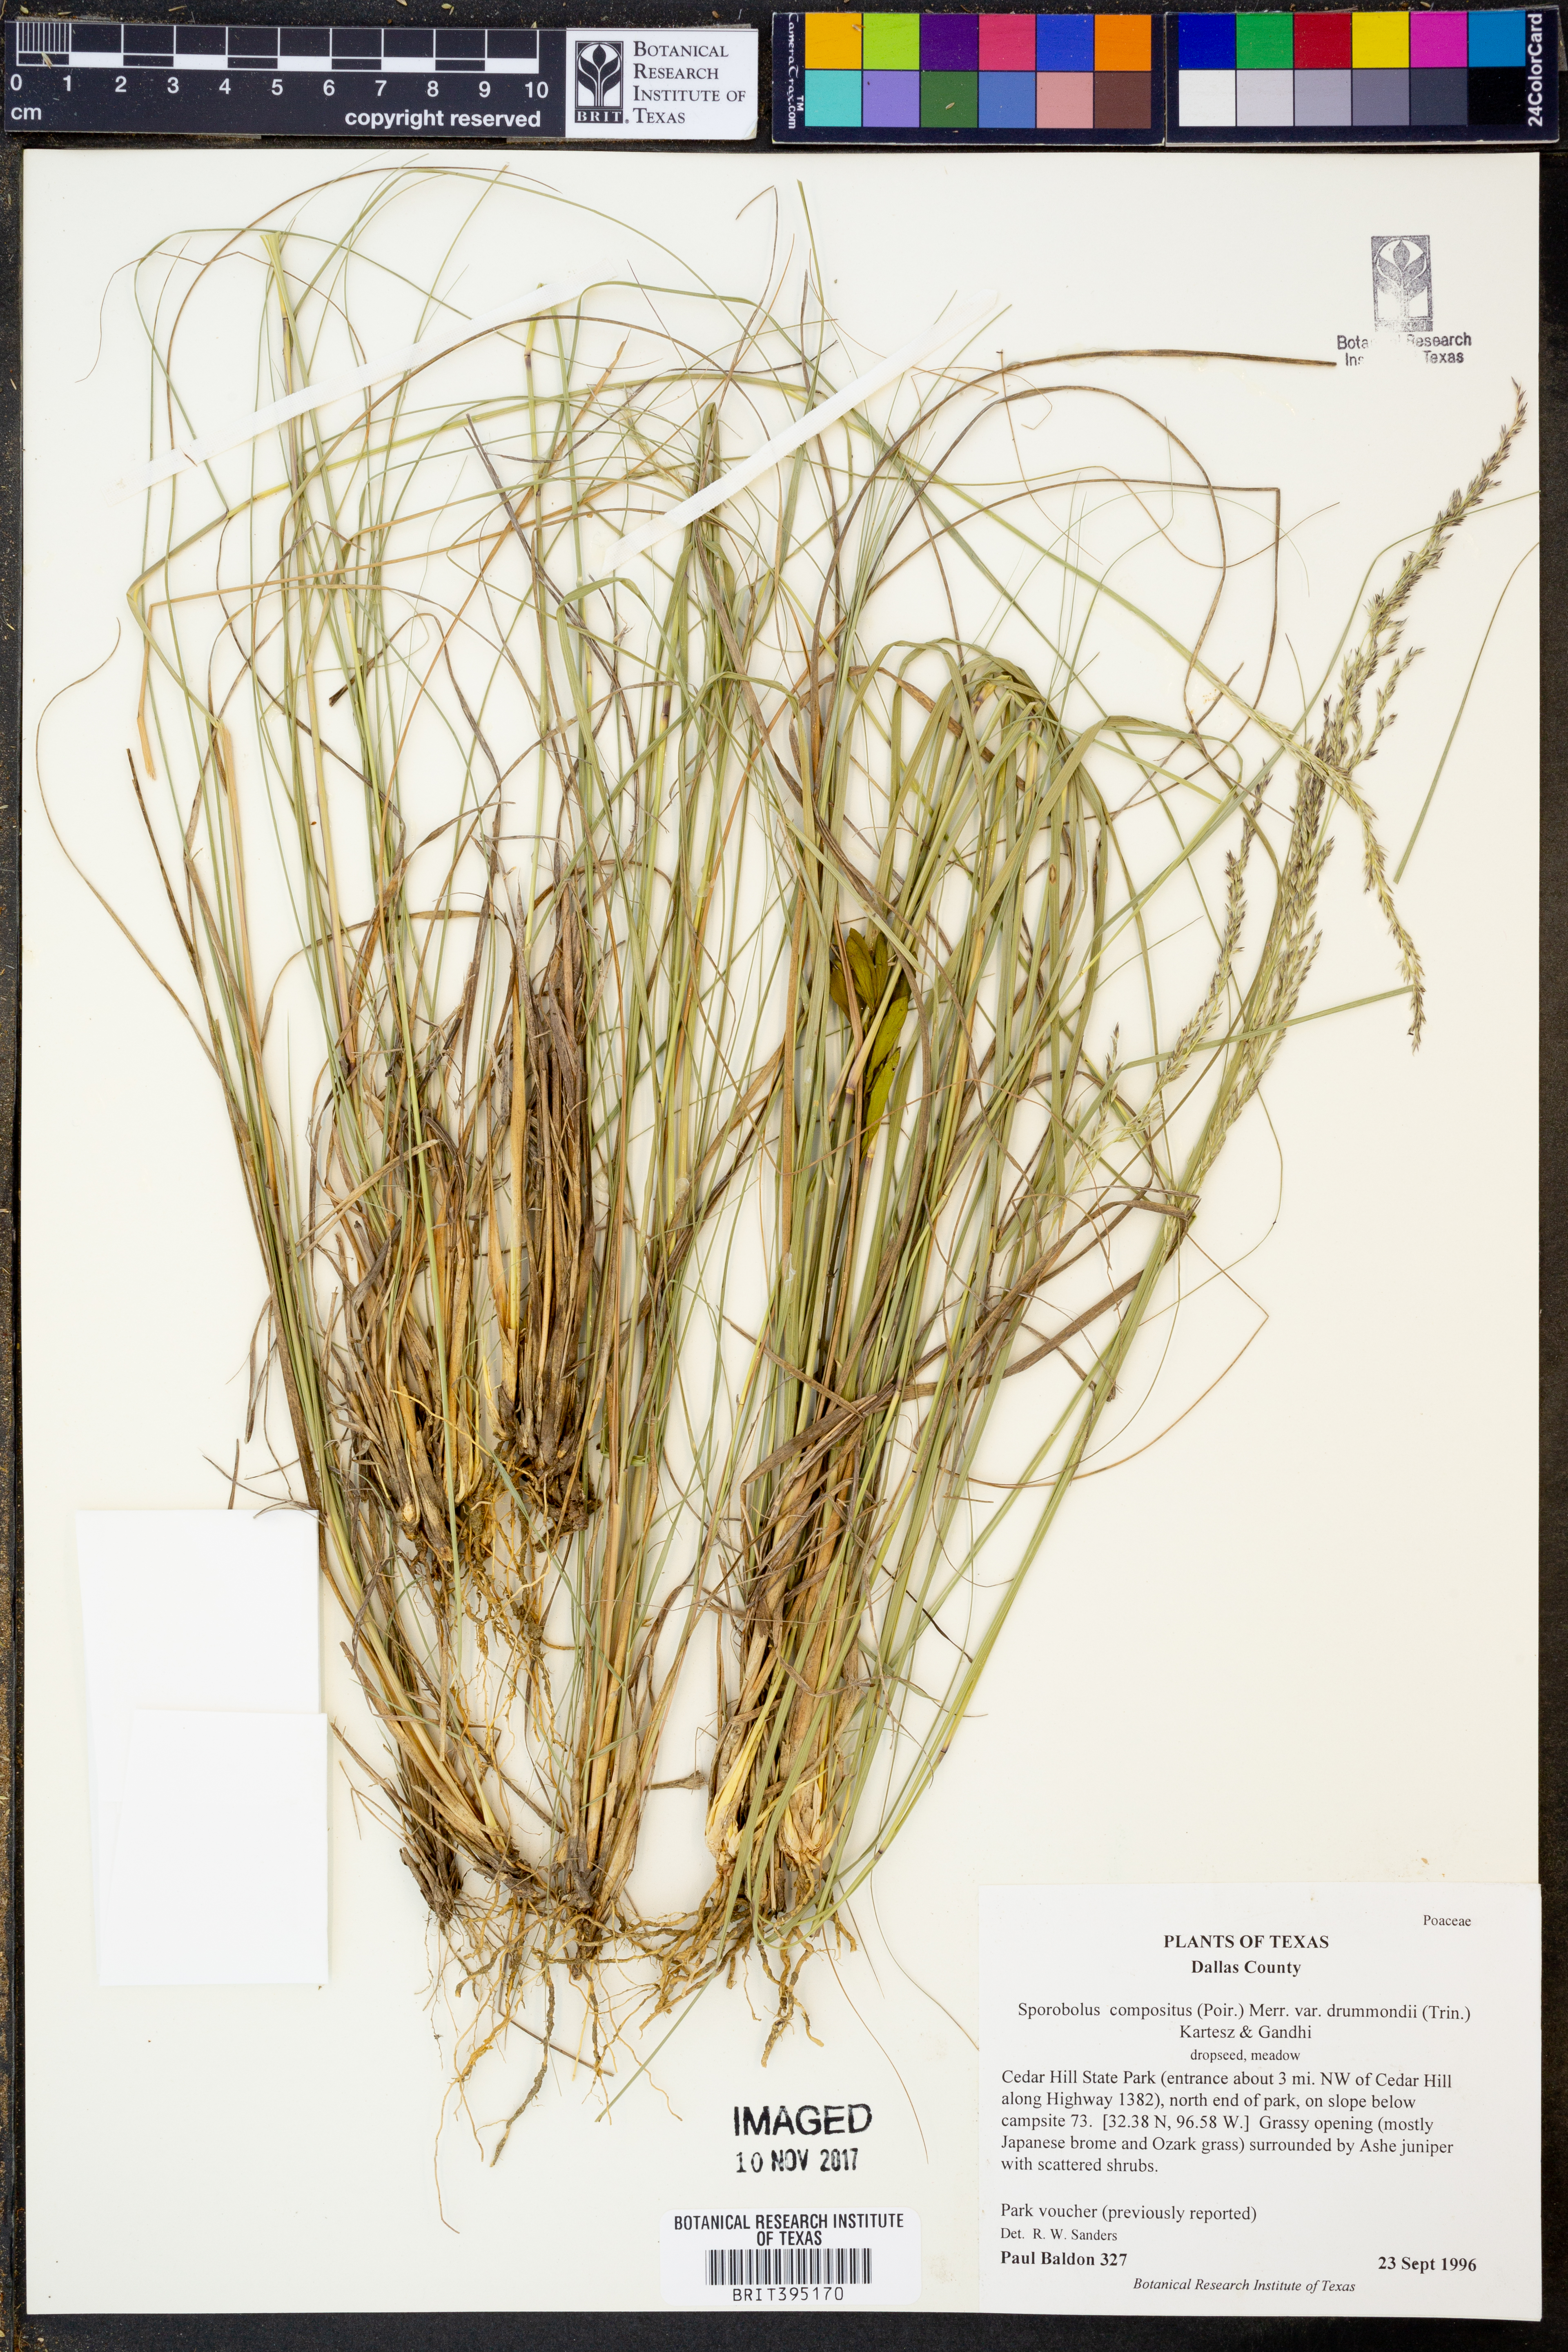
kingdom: Plantae
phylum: Tracheophyta
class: Liliopsida
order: Poales
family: Poaceae
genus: Sporobolus
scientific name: Sporobolus compositus
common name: Rough dropseed
